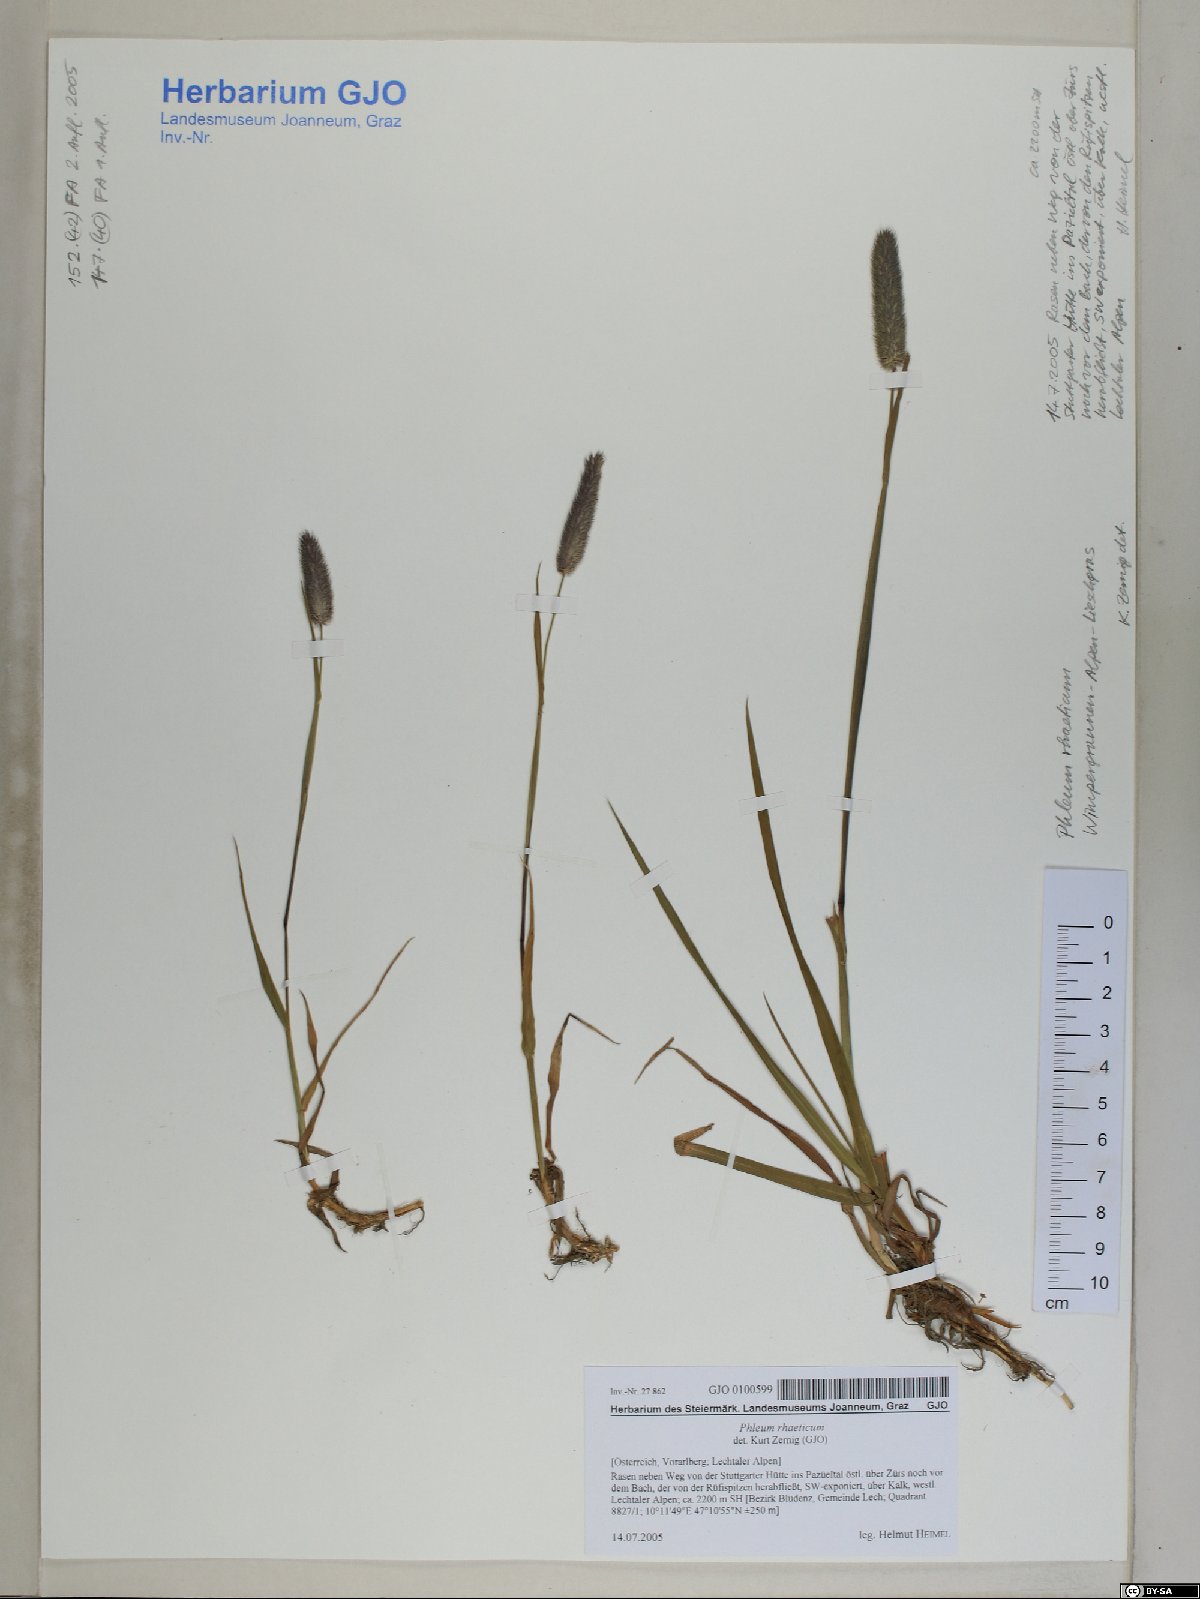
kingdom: Plantae
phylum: Tracheophyta
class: Liliopsida
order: Poales
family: Poaceae
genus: Phleum
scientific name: Phleum alpinum
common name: Alpine cat's-tail
